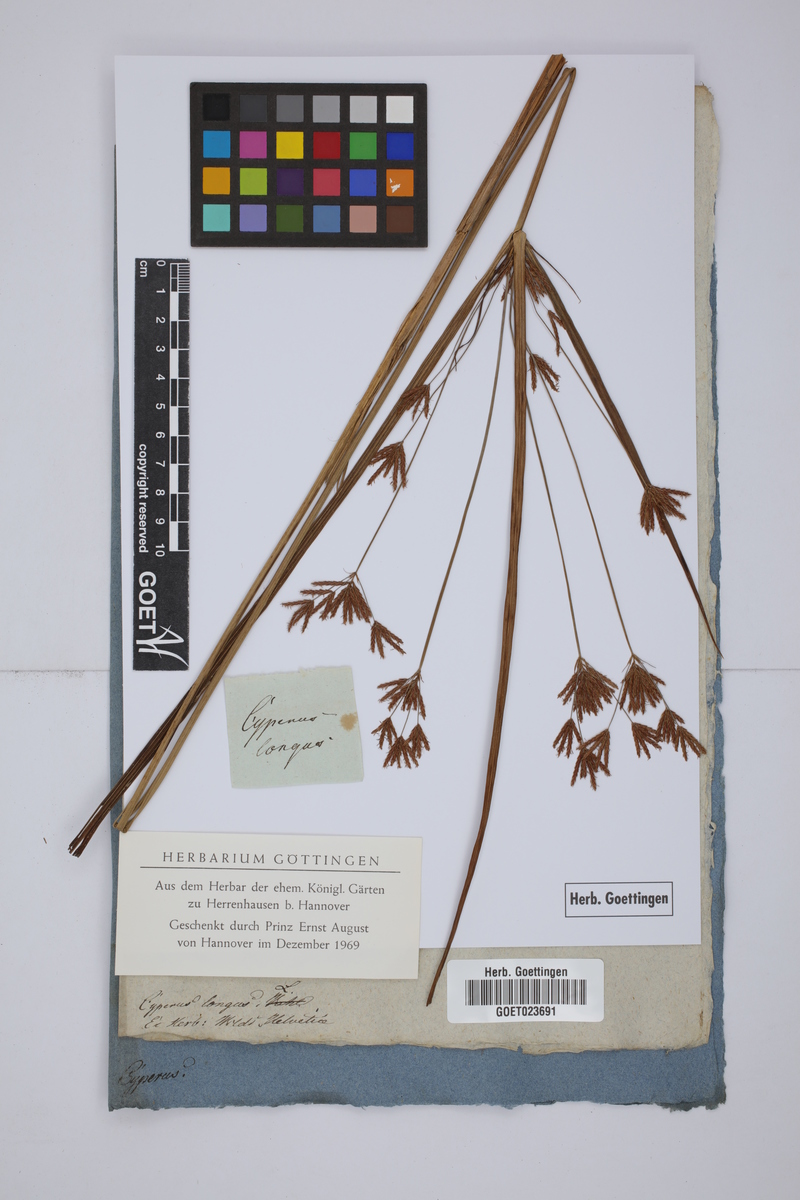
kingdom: Plantae
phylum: Tracheophyta
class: Liliopsida
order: Poales
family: Cyperaceae
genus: Cyperus
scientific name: Cyperus longus
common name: Galingale
